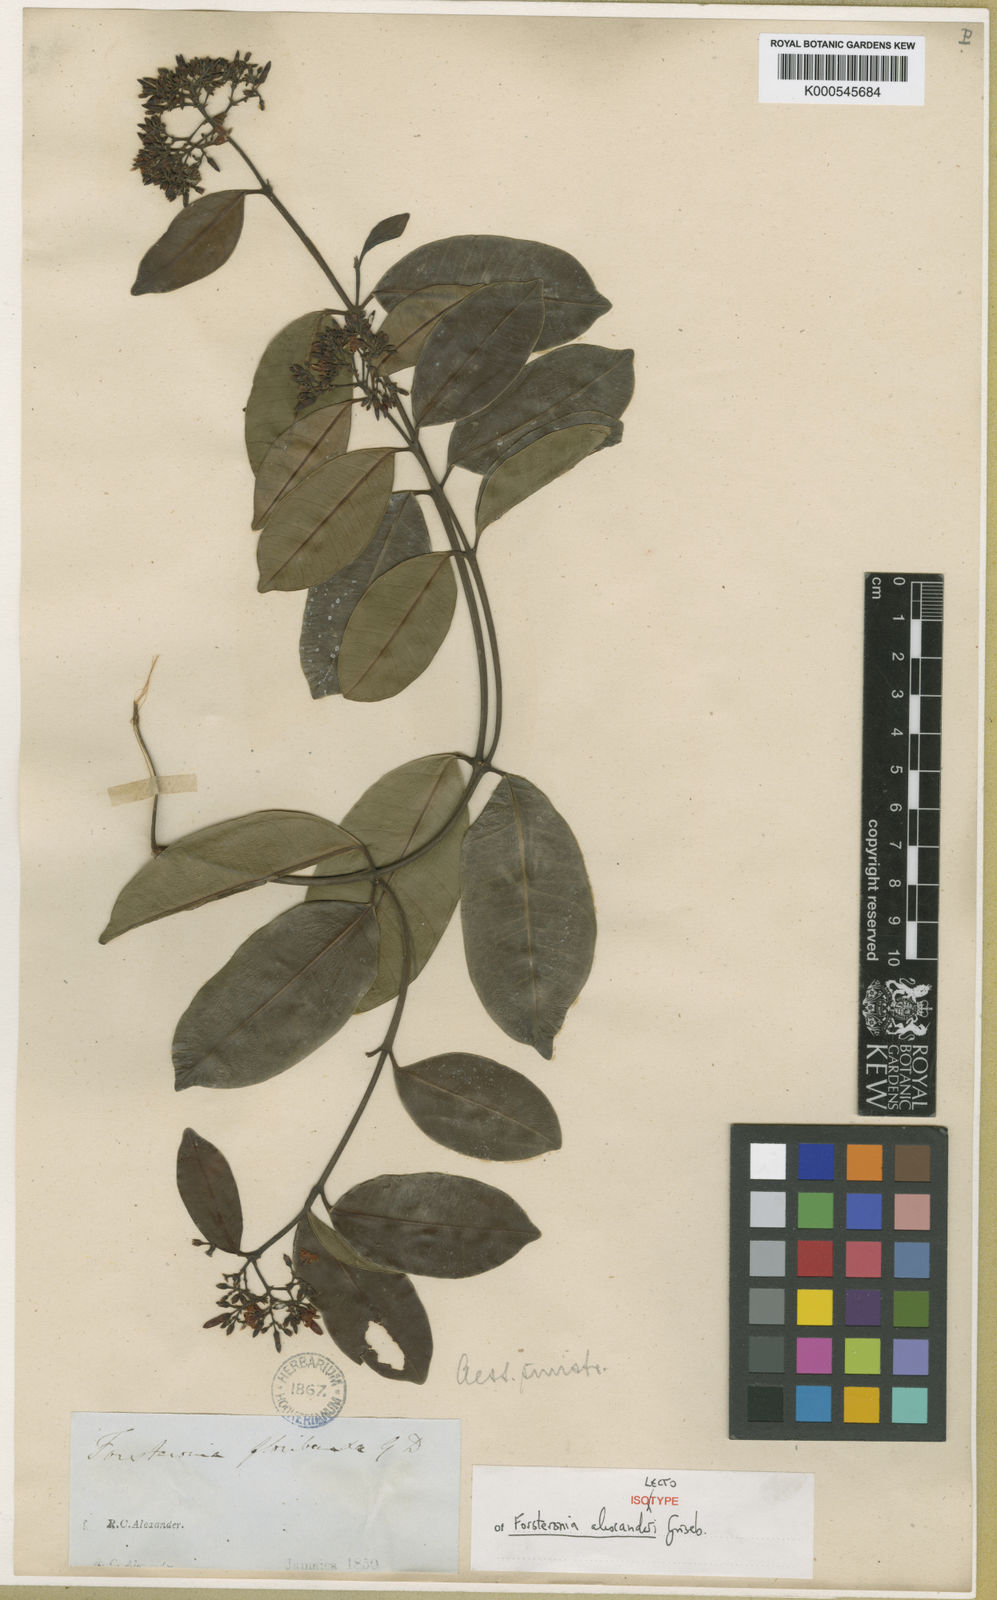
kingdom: Plantae
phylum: Tracheophyta
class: Magnoliopsida
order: Gentianales
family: Apocynaceae
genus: Pinochia
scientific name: Pinochia floribunda
